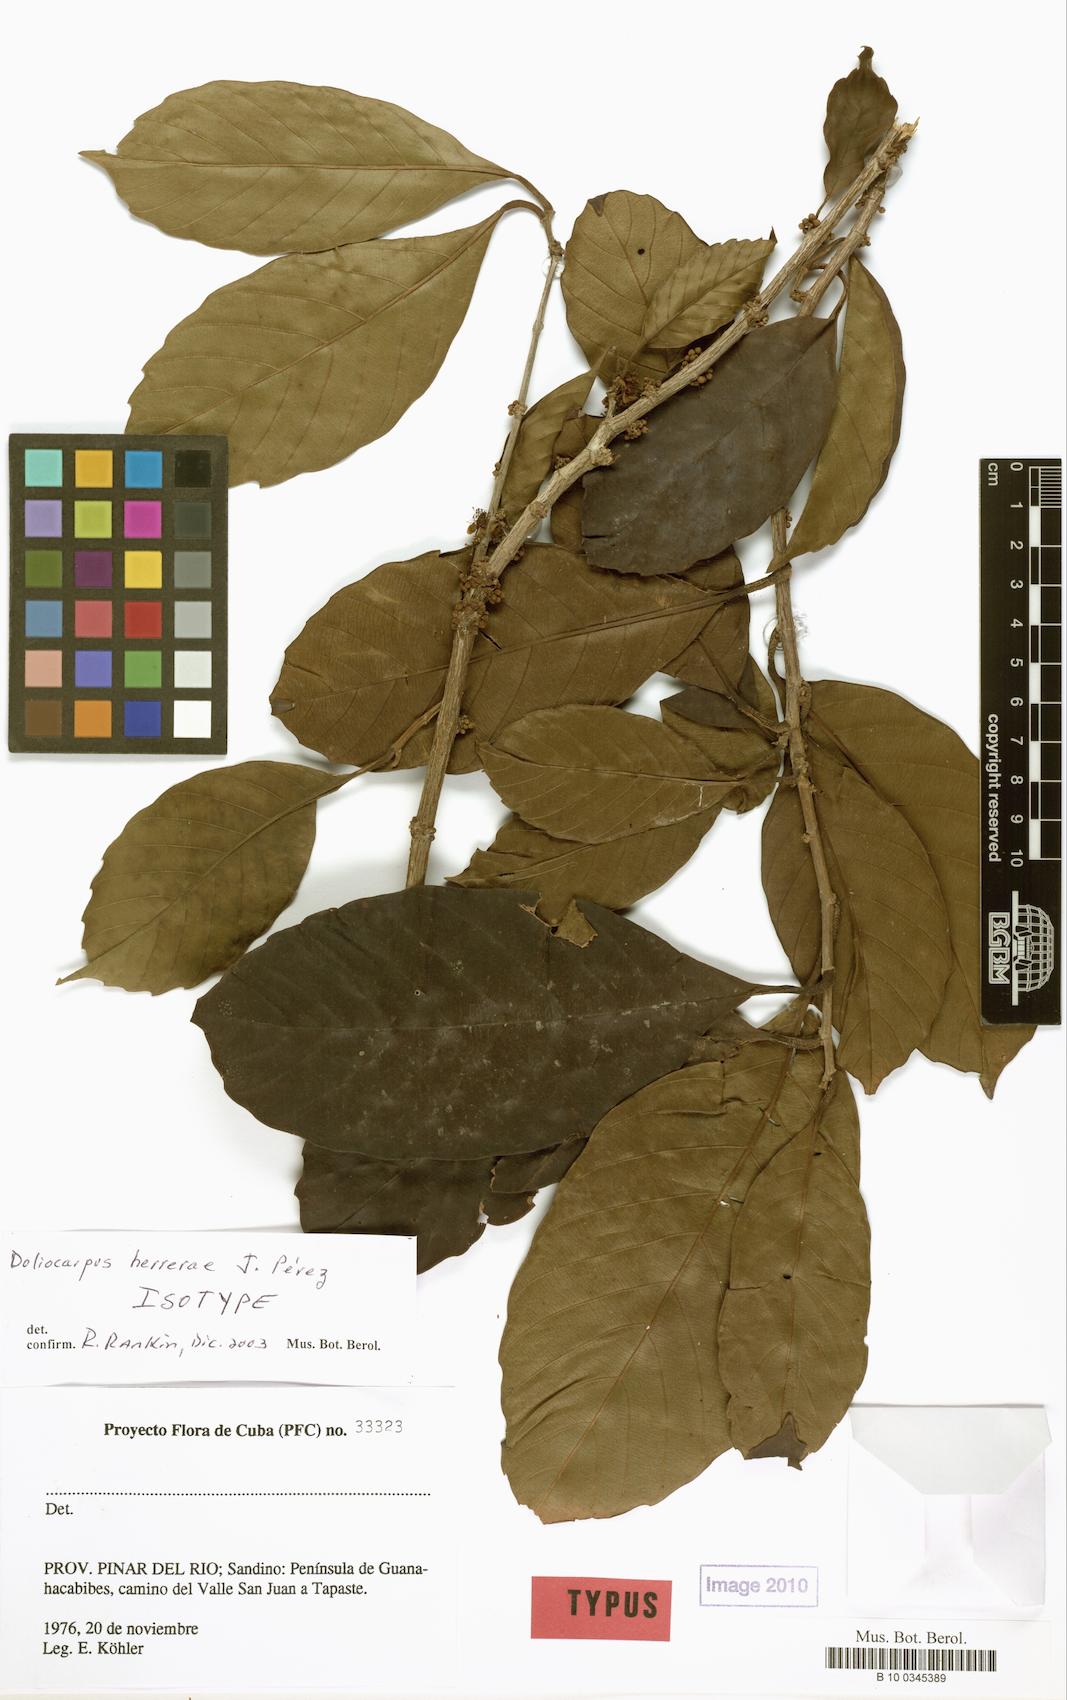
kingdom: Plantae
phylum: Tracheophyta
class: Magnoliopsida
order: Dilleniales
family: Dilleniaceae
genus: Doliocarpus
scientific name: Doliocarpus herrerae
